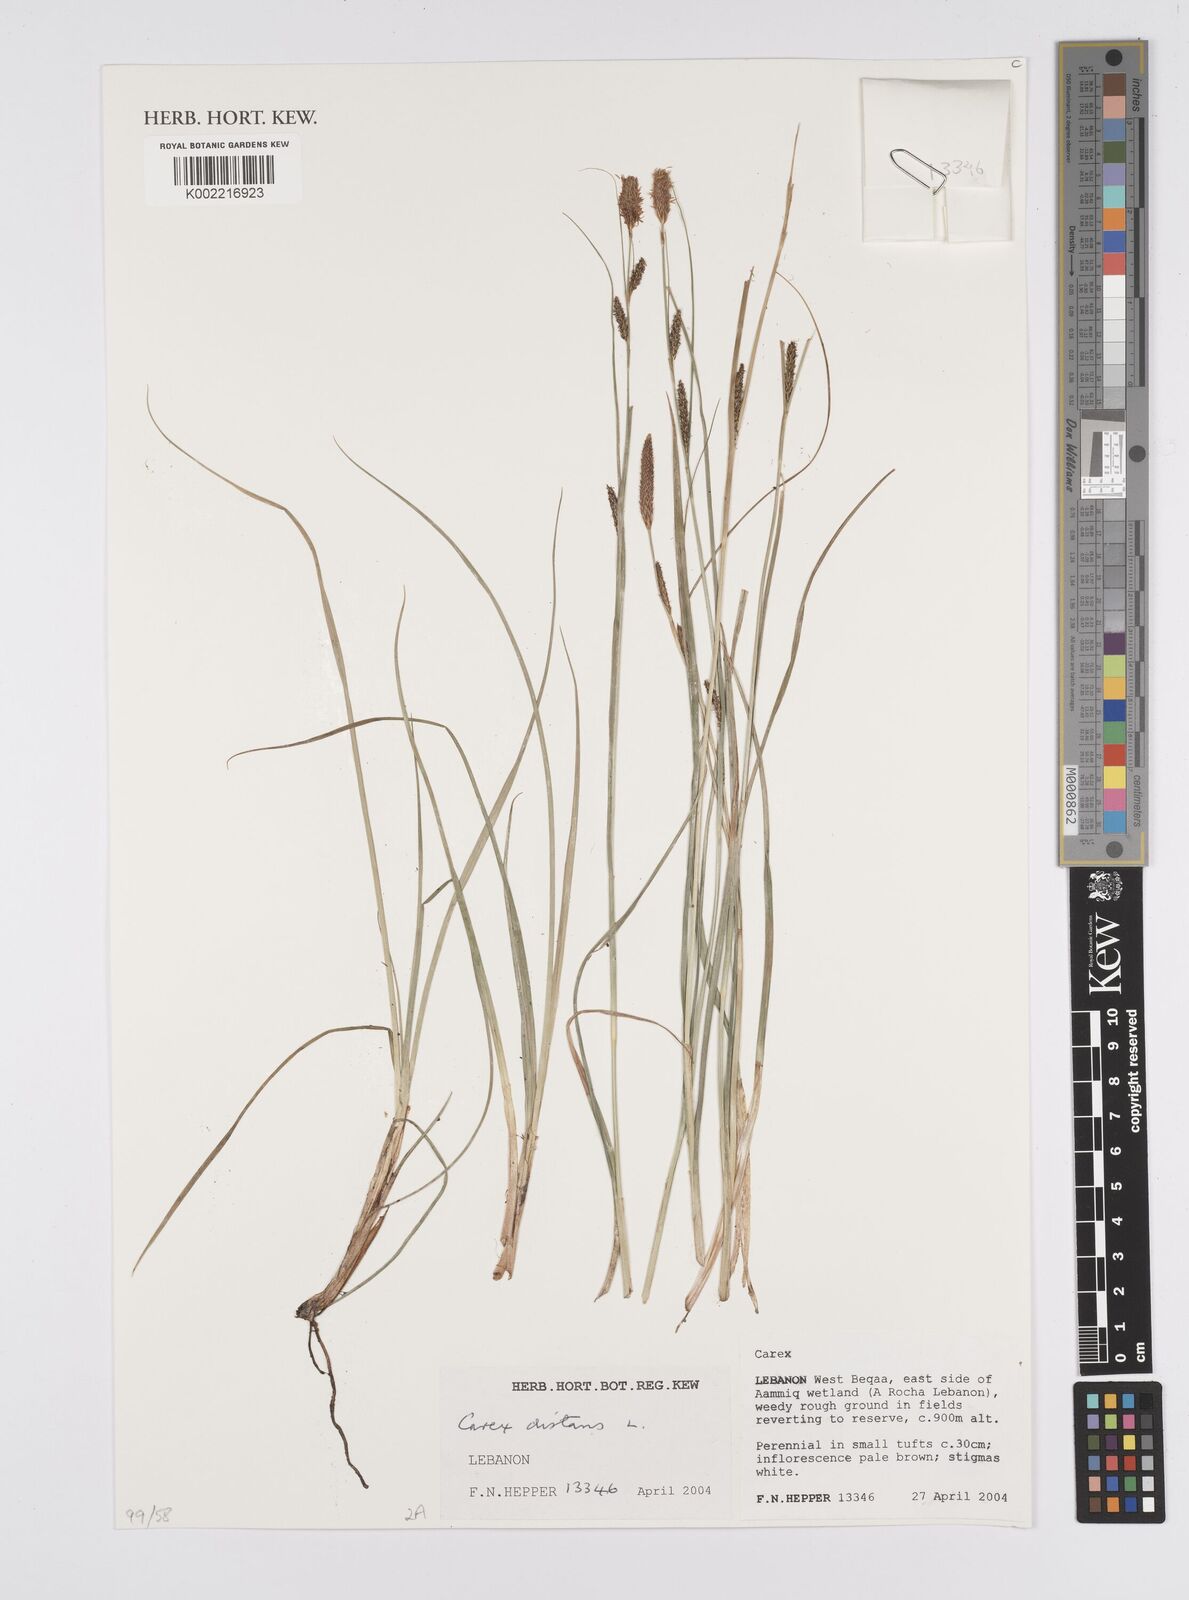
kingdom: Plantae
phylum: Tracheophyta
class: Liliopsida
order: Poales
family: Cyperaceae
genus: Carex
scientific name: Carex distans
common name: Distant sedge
